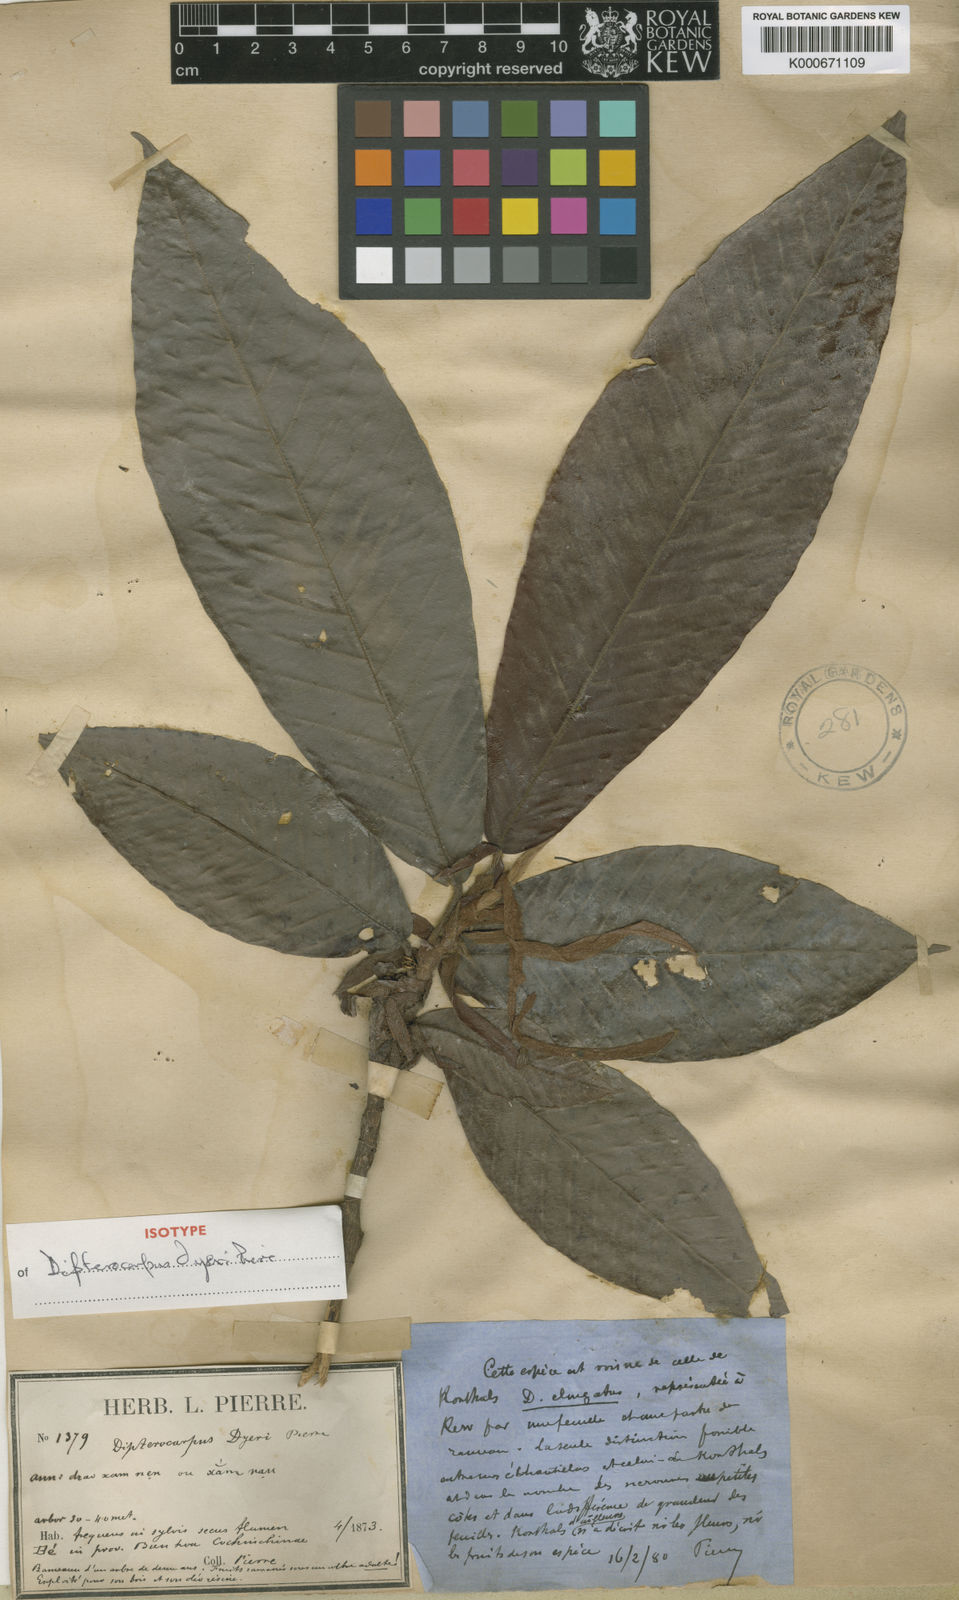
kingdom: Plantae
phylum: Tracheophyta
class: Magnoliopsida
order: Malvales
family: Dipterocarpaceae
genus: Dipterocarpus
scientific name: Dipterocarpus
